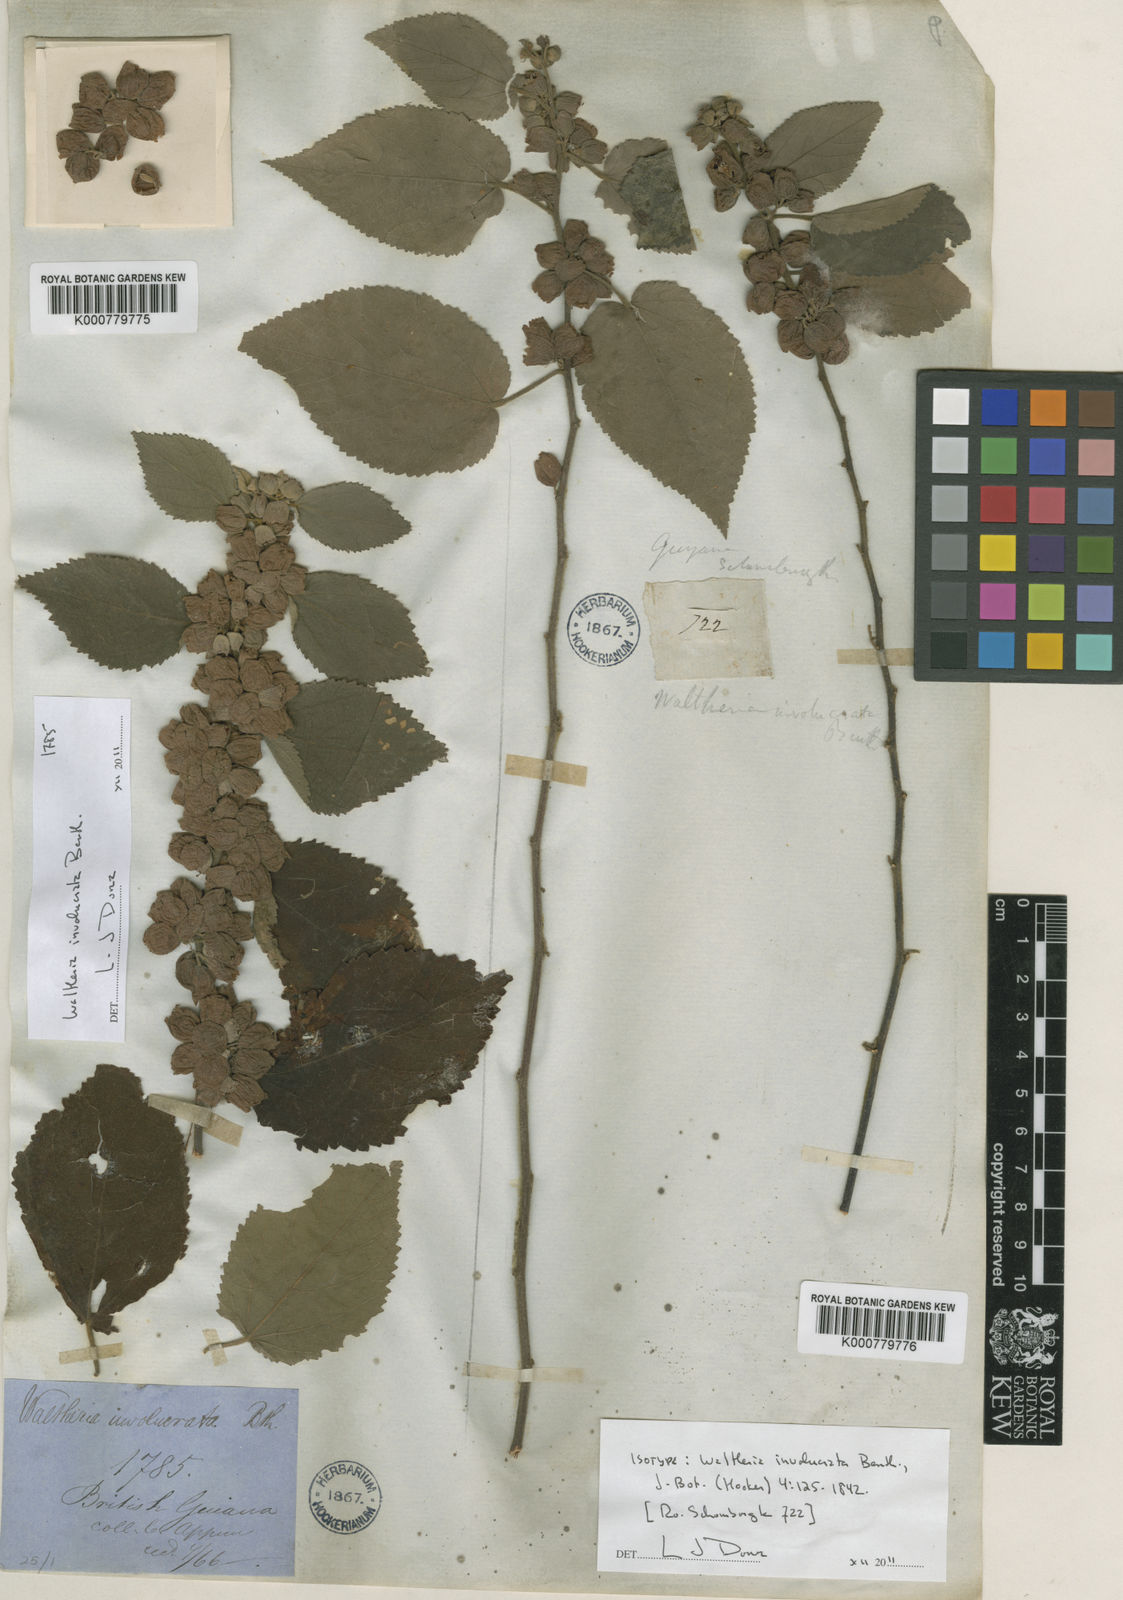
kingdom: Plantae
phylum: Tracheophyta
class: Magnoliopsida
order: Malvales
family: Malvaceae
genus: Waltheria
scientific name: Waltheria involucrata
